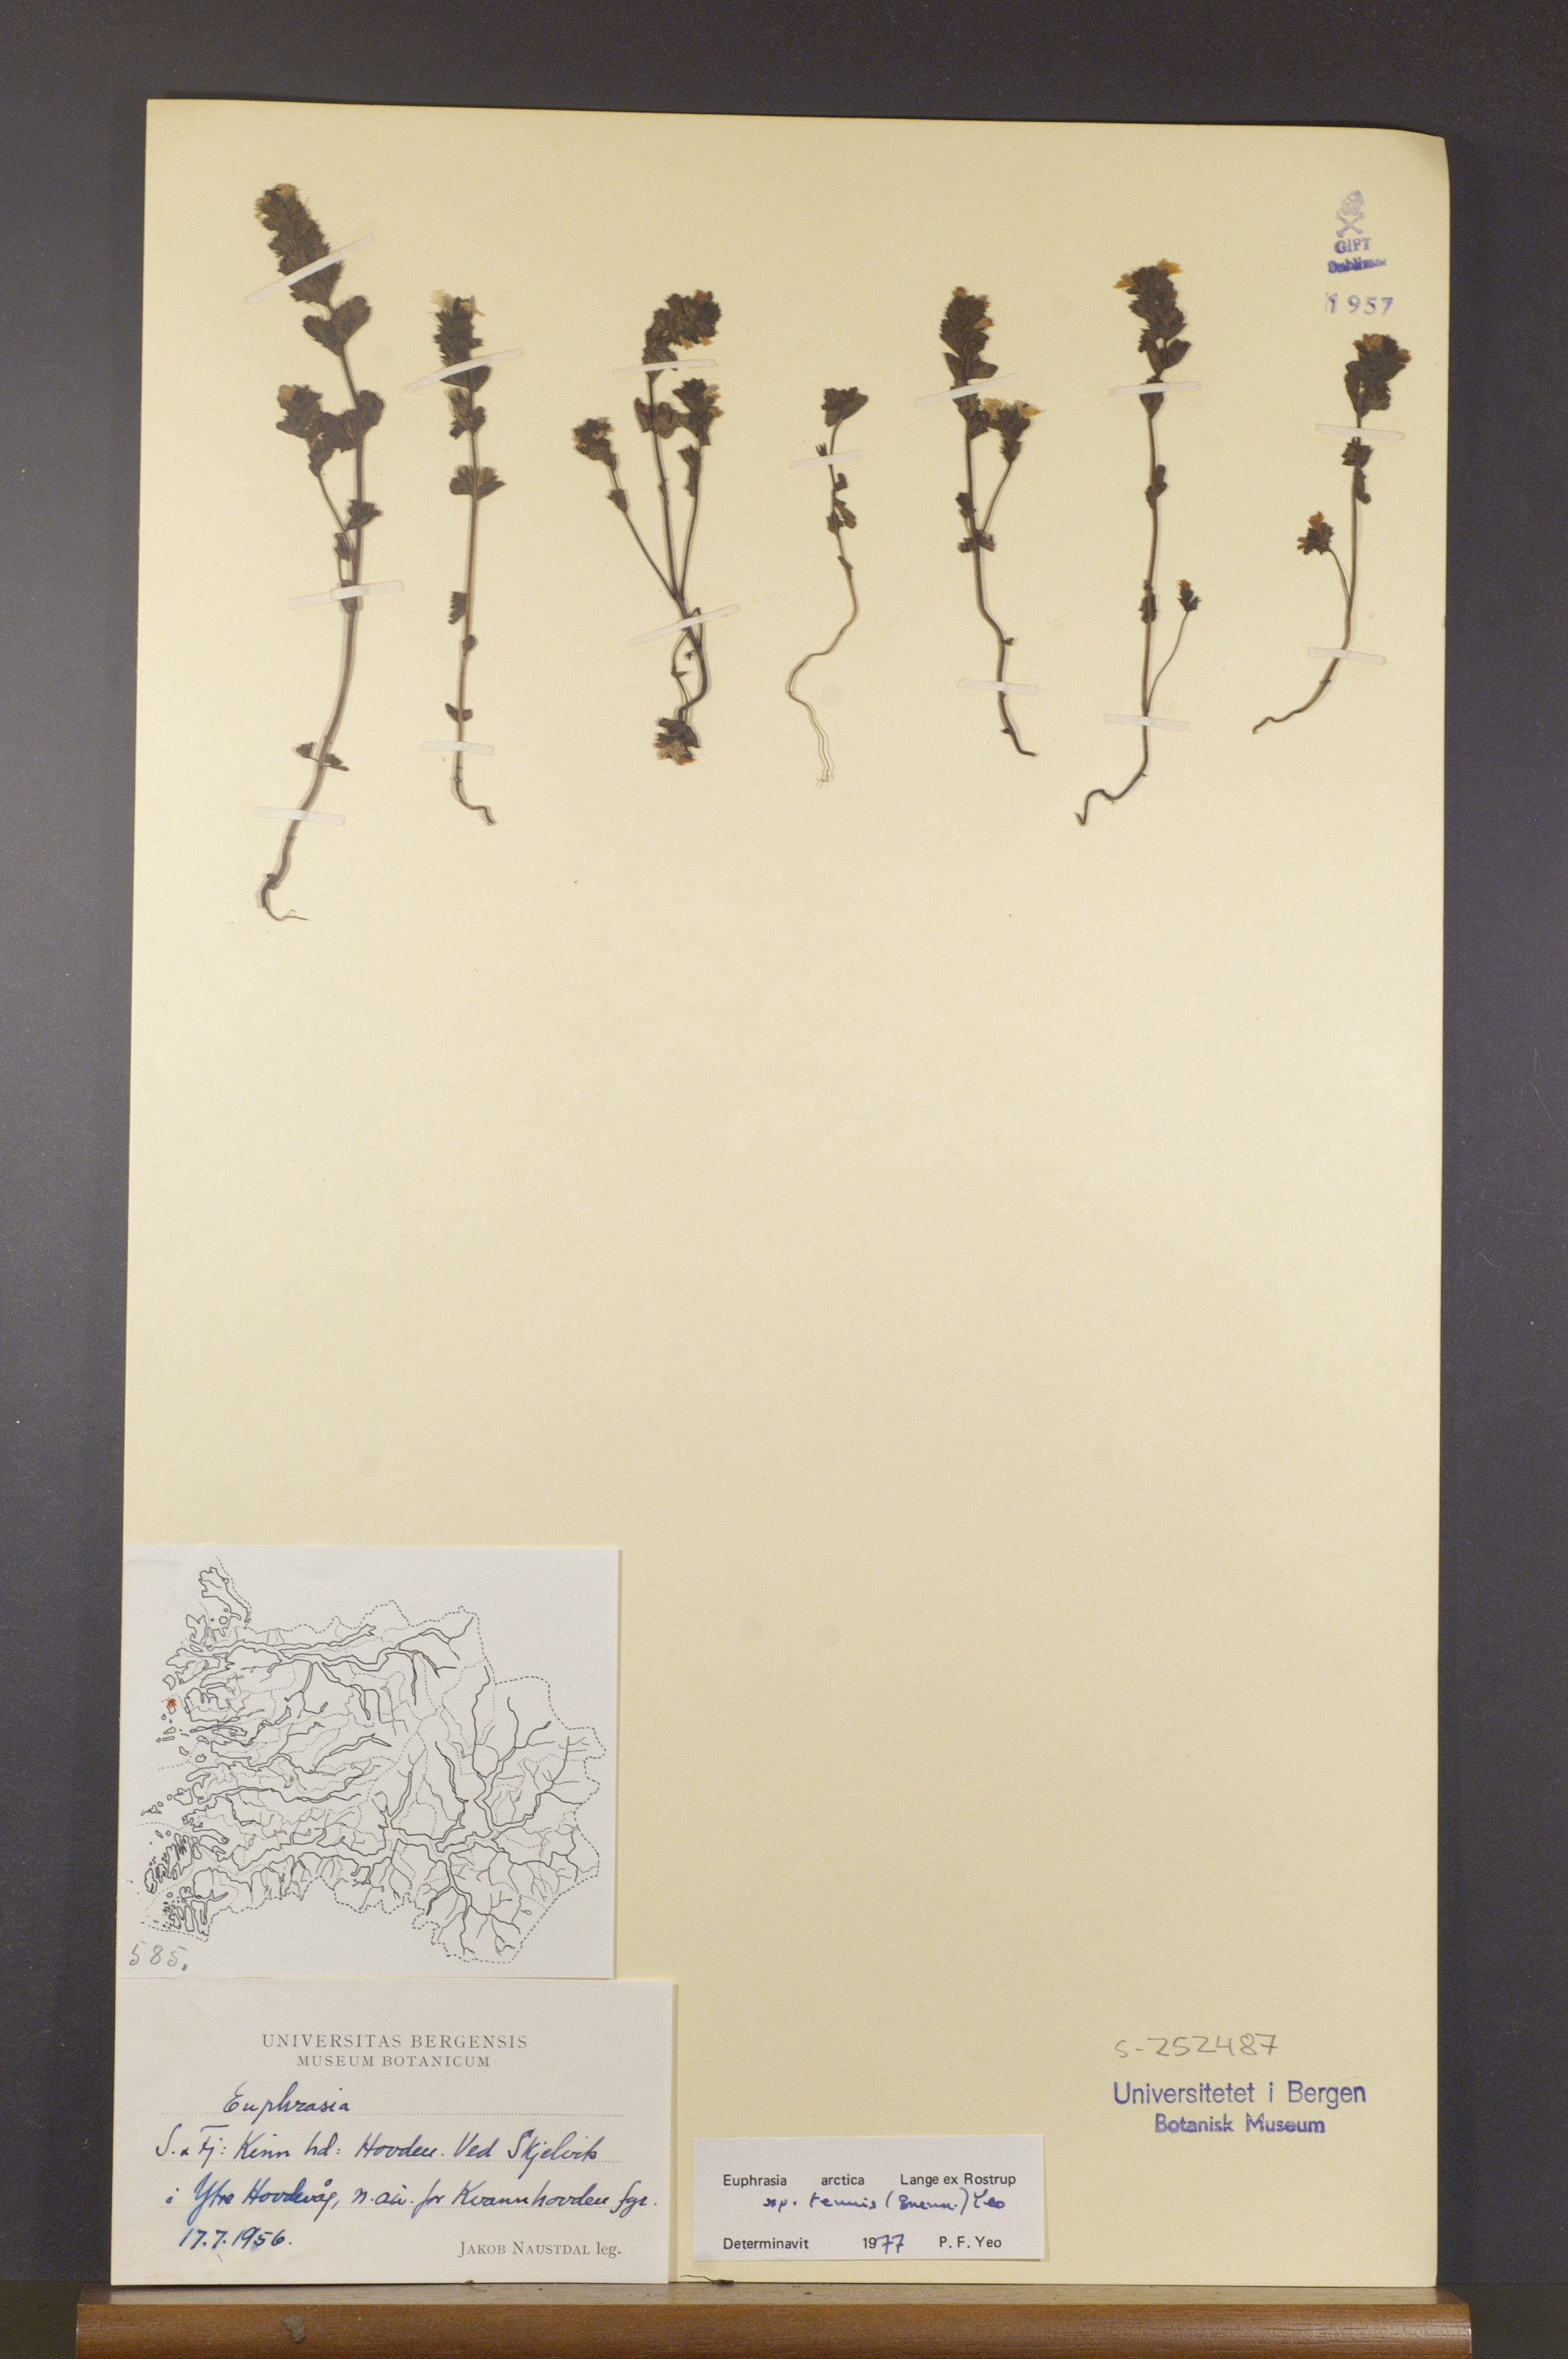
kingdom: Plantae
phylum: Tracheophyta
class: Magnoliopsida
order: Lamiales
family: Orobanchaceae
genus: Euphrasia
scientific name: Euphrasia vernalis
